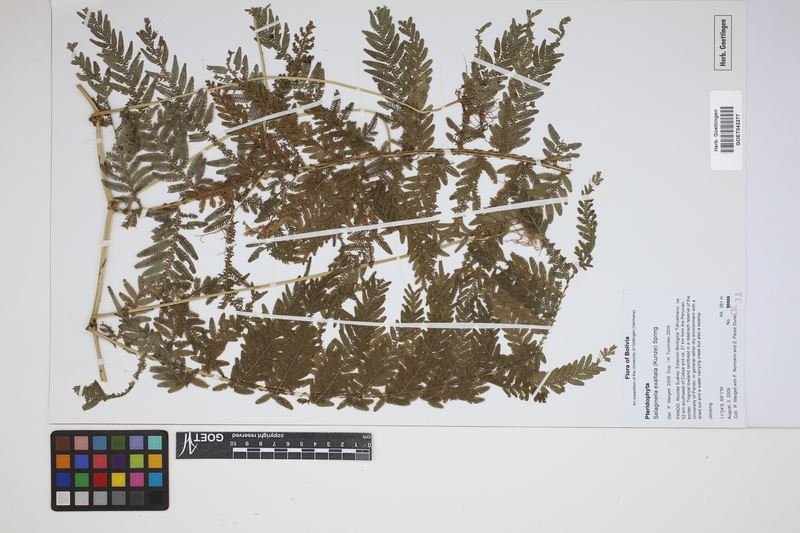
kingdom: Plantae
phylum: Tracheophyta
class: Lycopodiopsida
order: Selaginellales
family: Selaginellaceae
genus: Selaginella
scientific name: Selaginella exaltata
